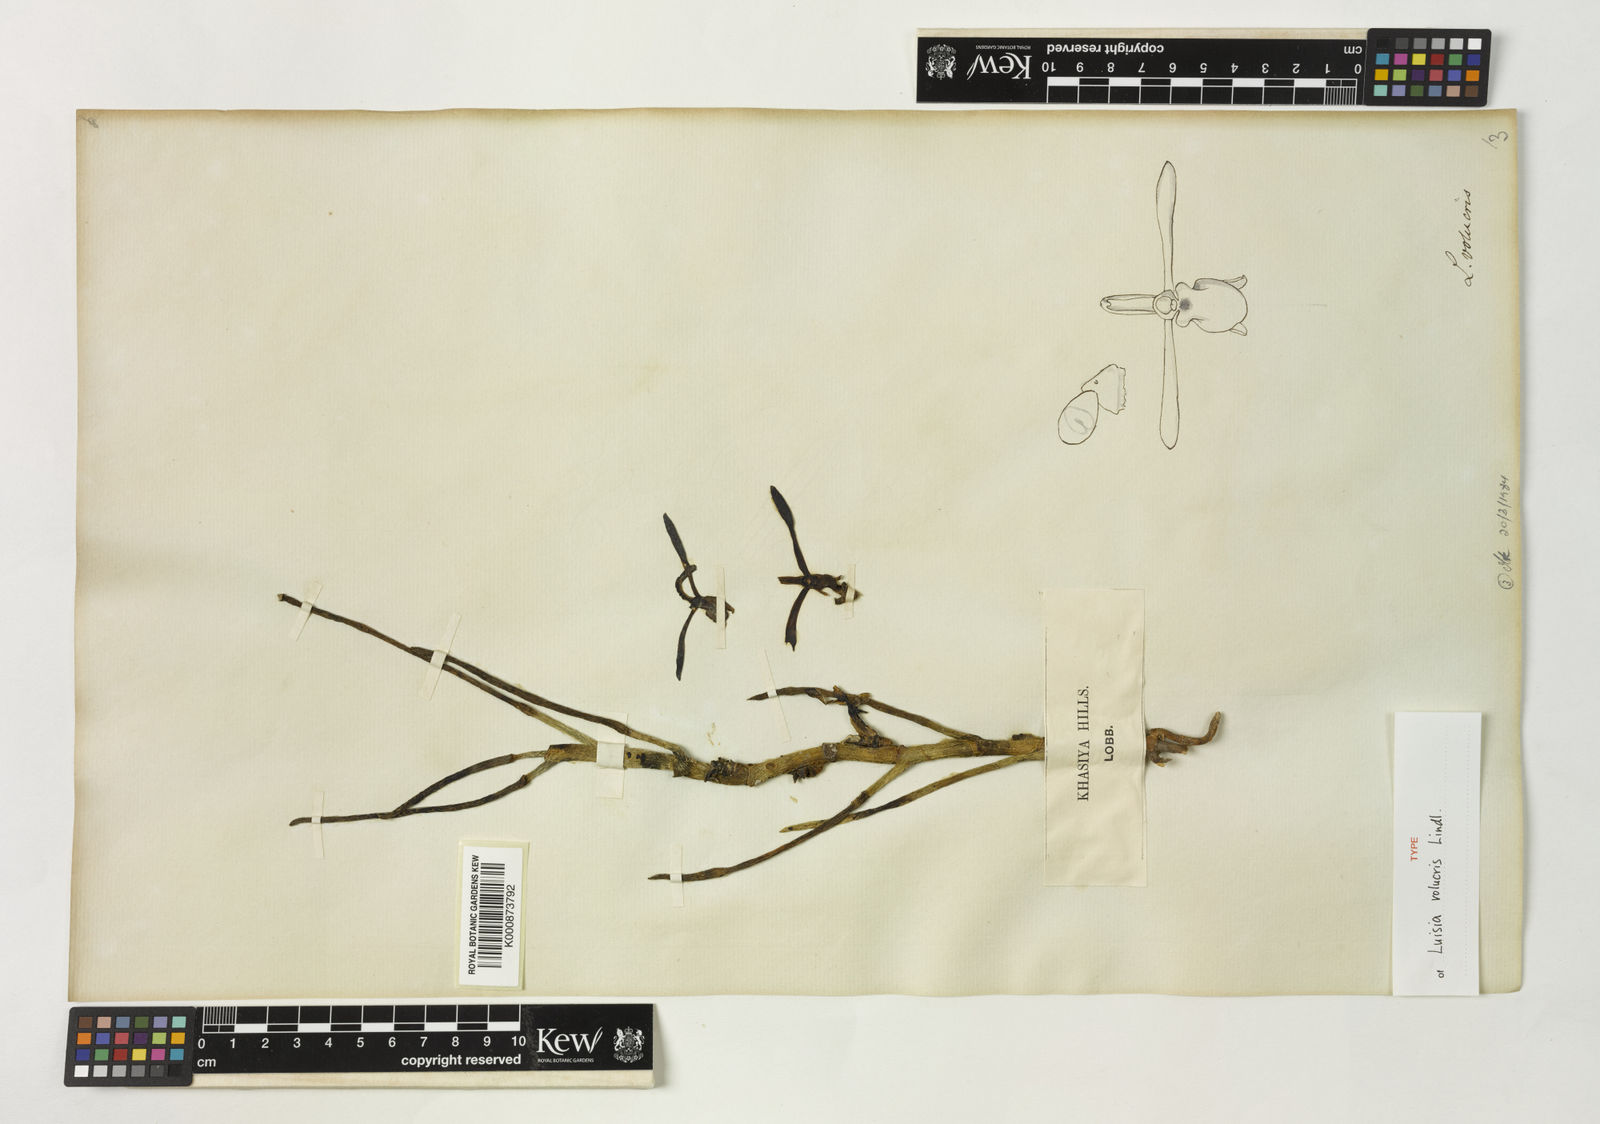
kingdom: Plantae
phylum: Tracheophyta
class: Liliopsida
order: Asparagales
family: Orchidaceae
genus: Luisia
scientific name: Luisia volucris
